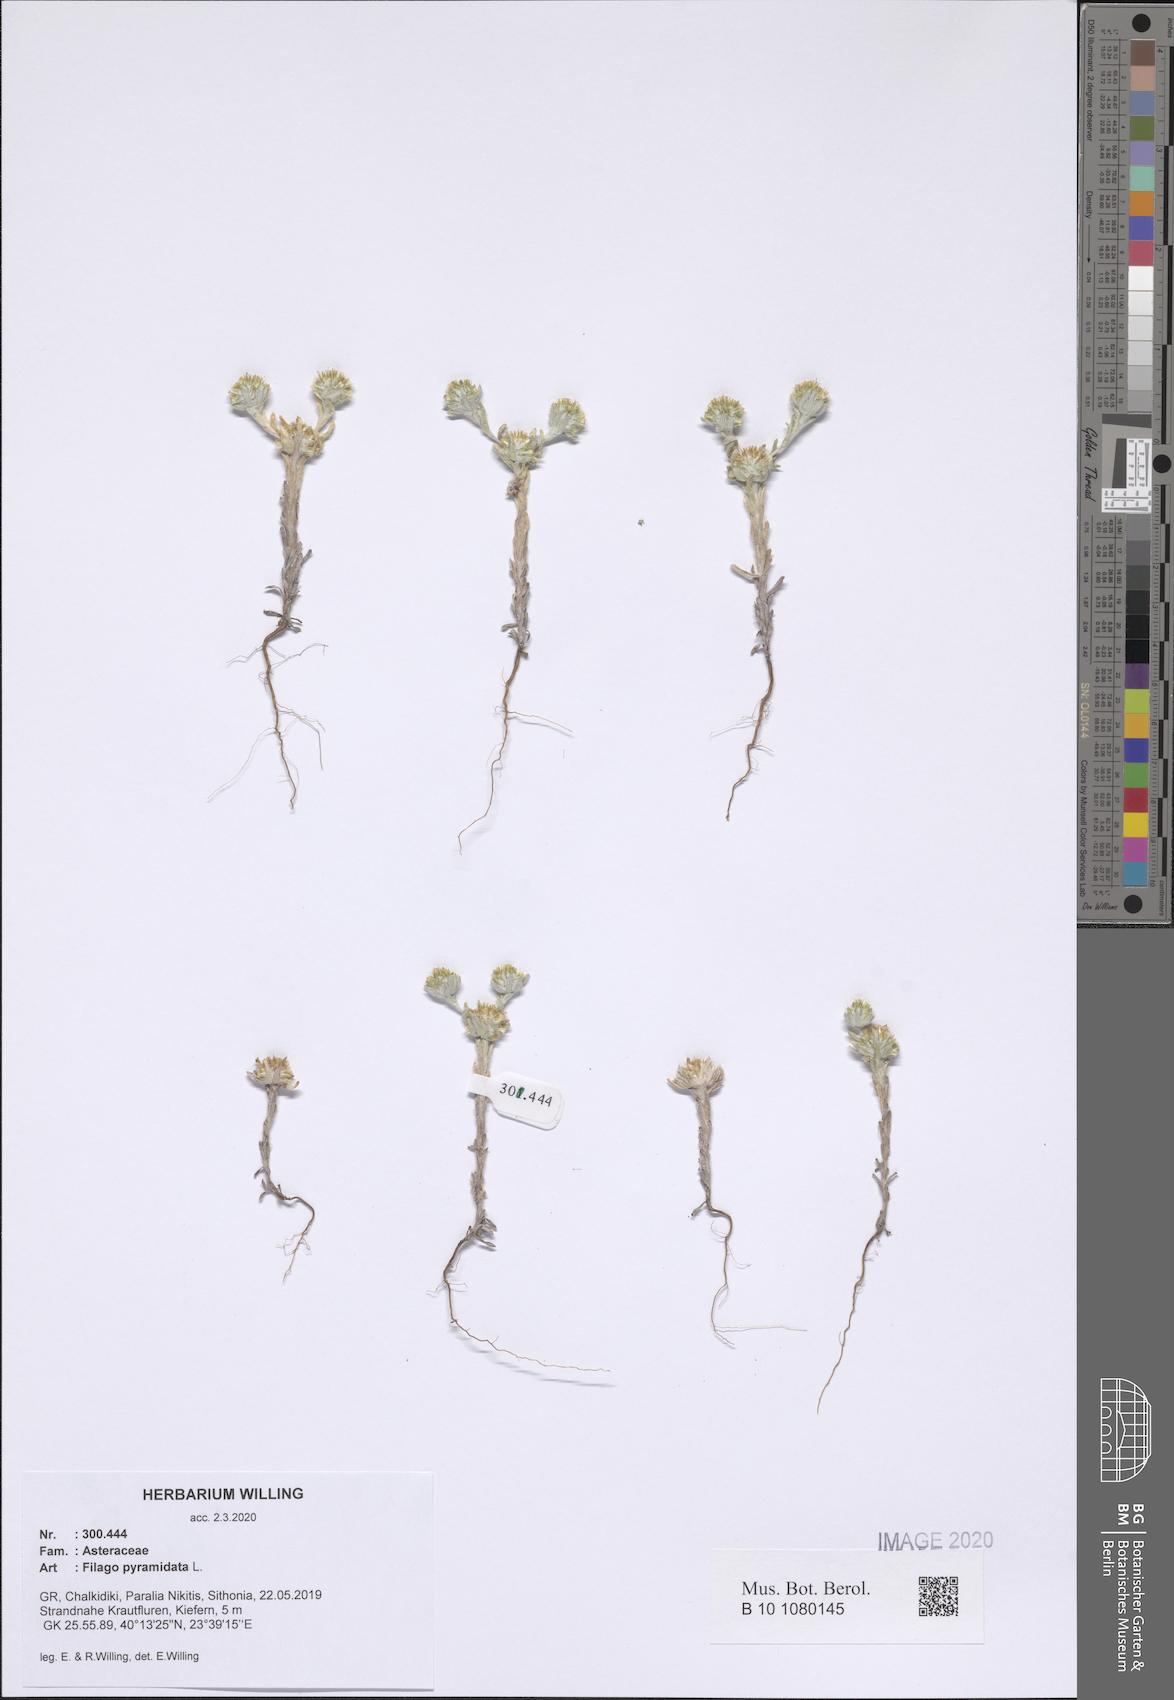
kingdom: Plantae
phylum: Tracheophyta
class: Magnoliopsida
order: Asterales
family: Asteraceae
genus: Filago
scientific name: Filago pyramidata
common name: Broad-leaved cudweed
